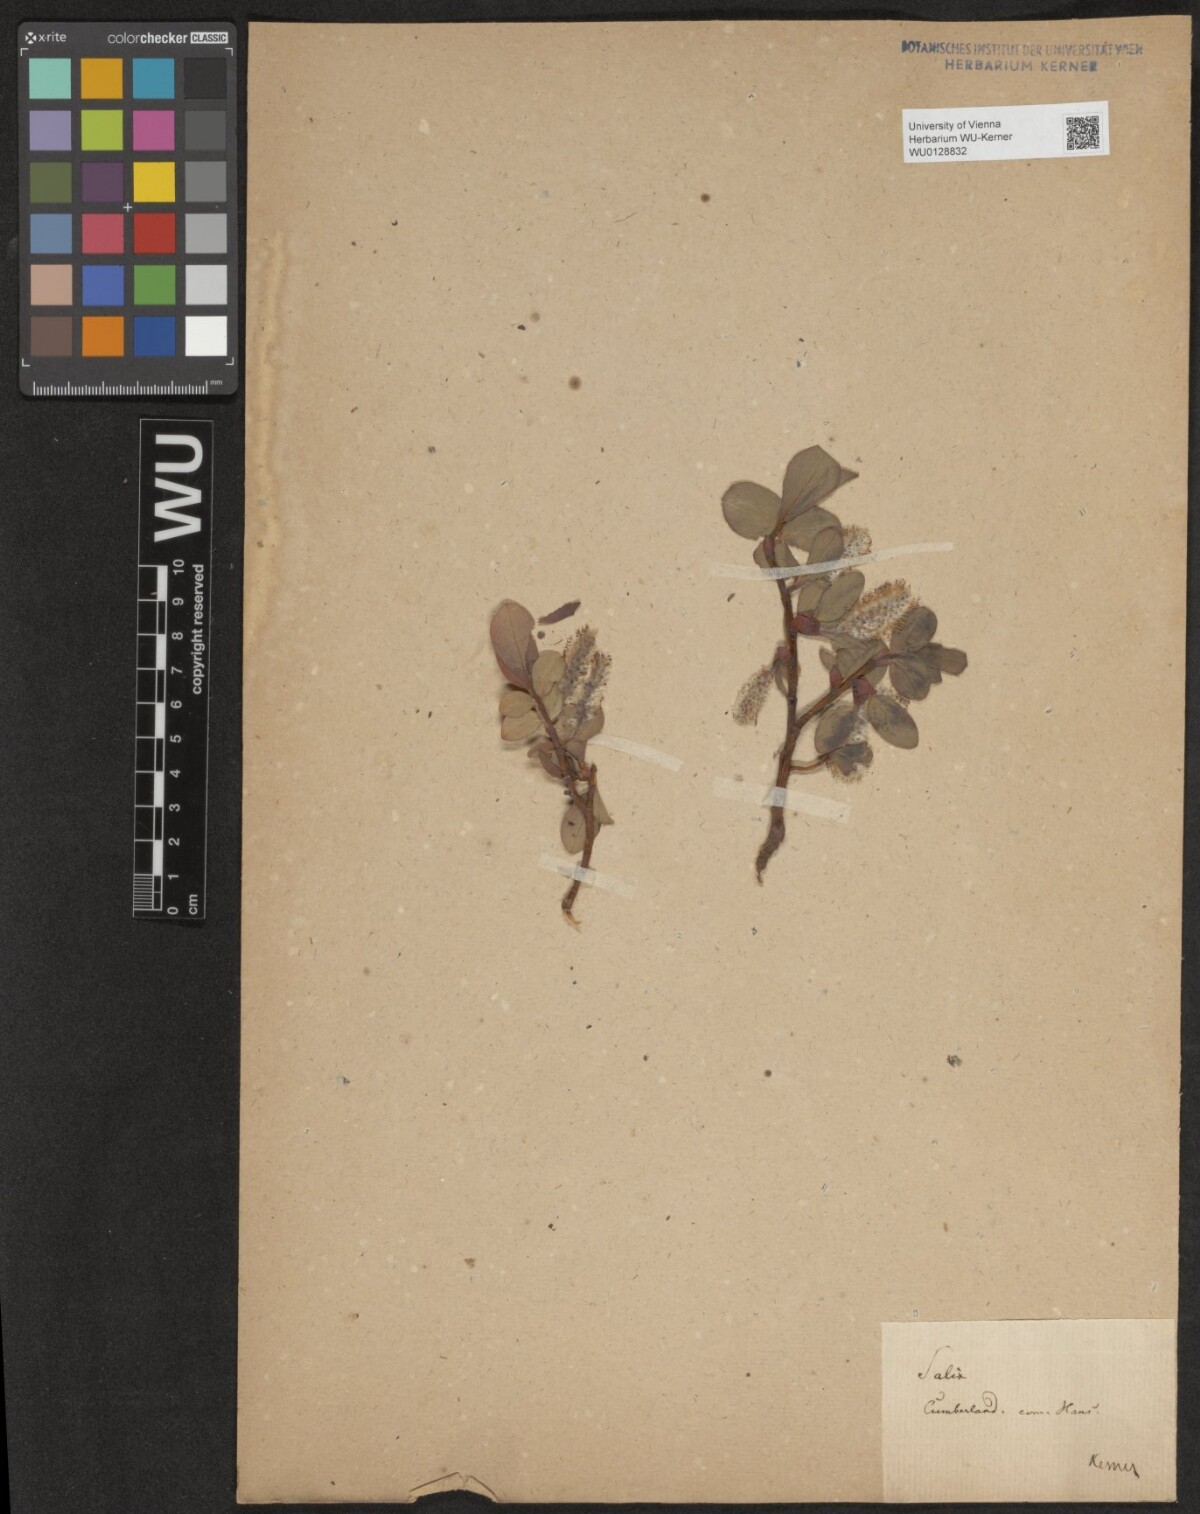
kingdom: Plantae
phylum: Tracheophyta
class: Magnoliopsida
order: Malpighiales
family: Salicaceae
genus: Salix
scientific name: Salix arctica
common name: Arctic willow
